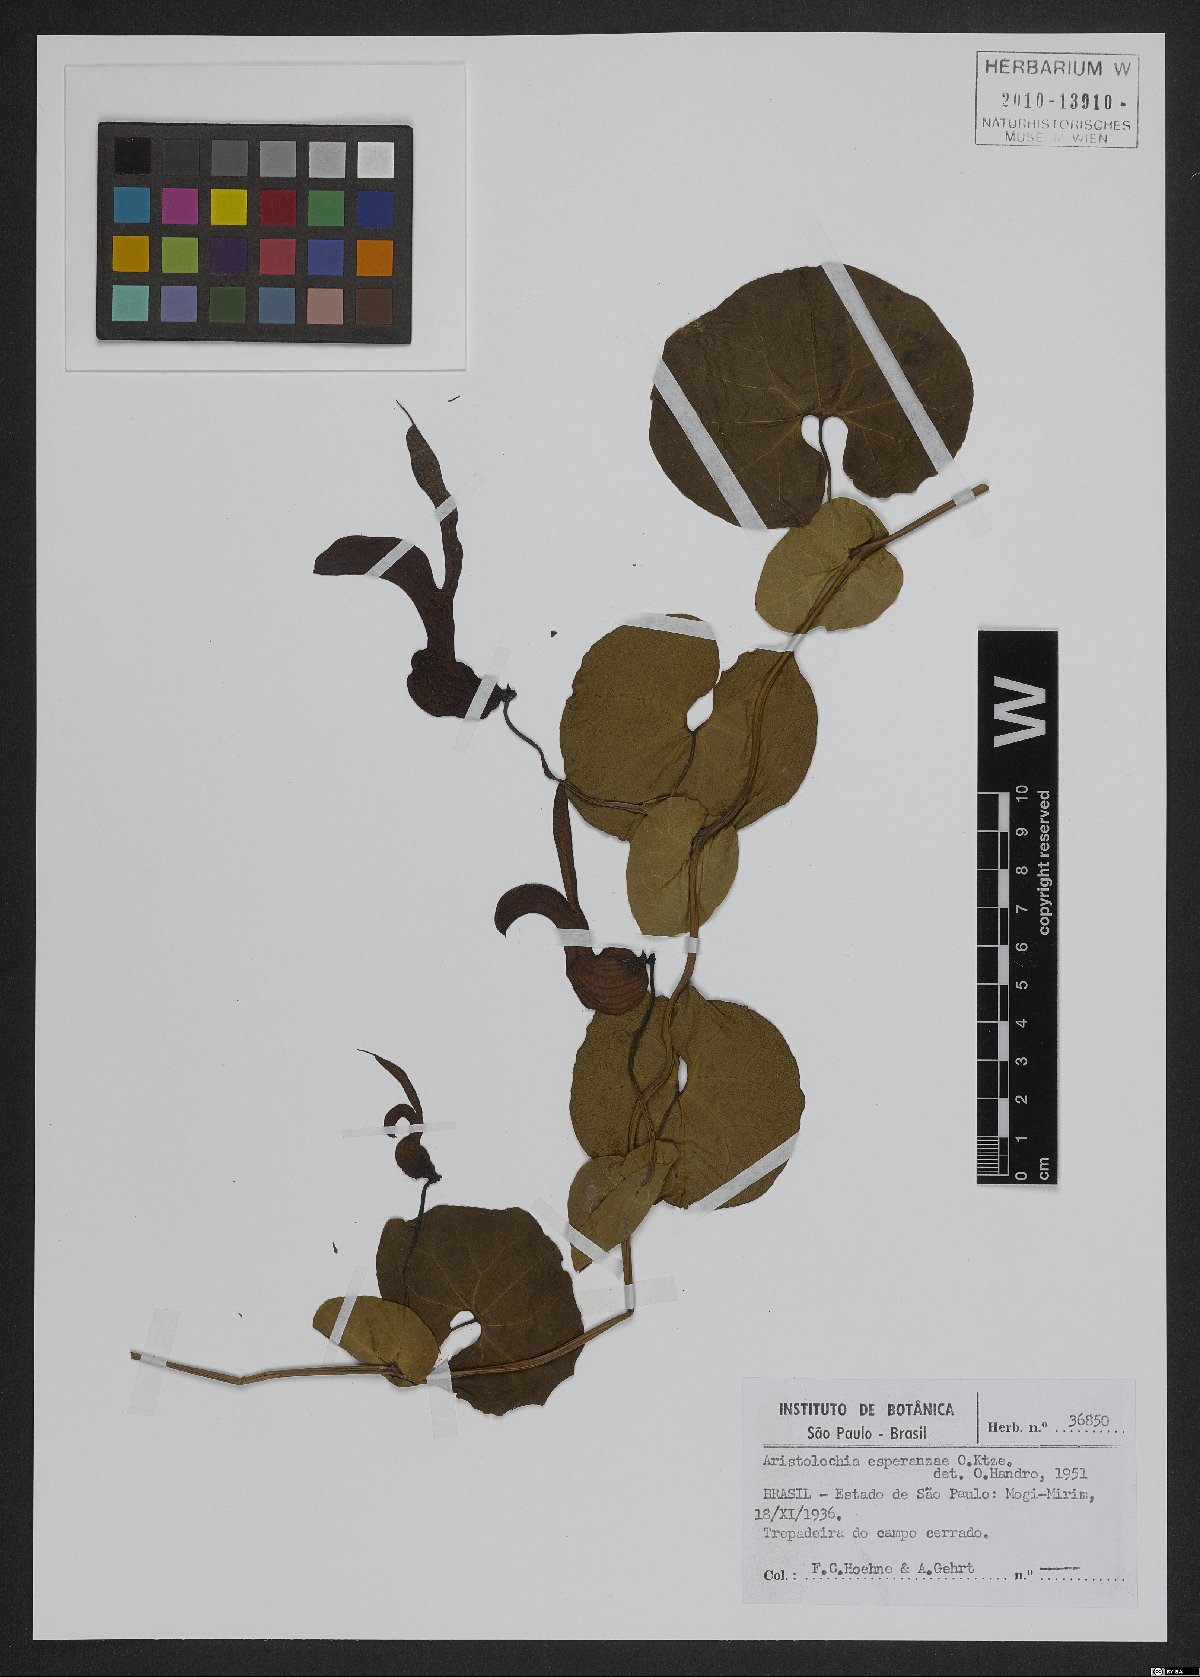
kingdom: Plantae
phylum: Tracheophyta
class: Magnoliopsida
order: Piperales
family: Aristolochiaceae
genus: Aristolochia
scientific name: Aristolochia esperanzae
